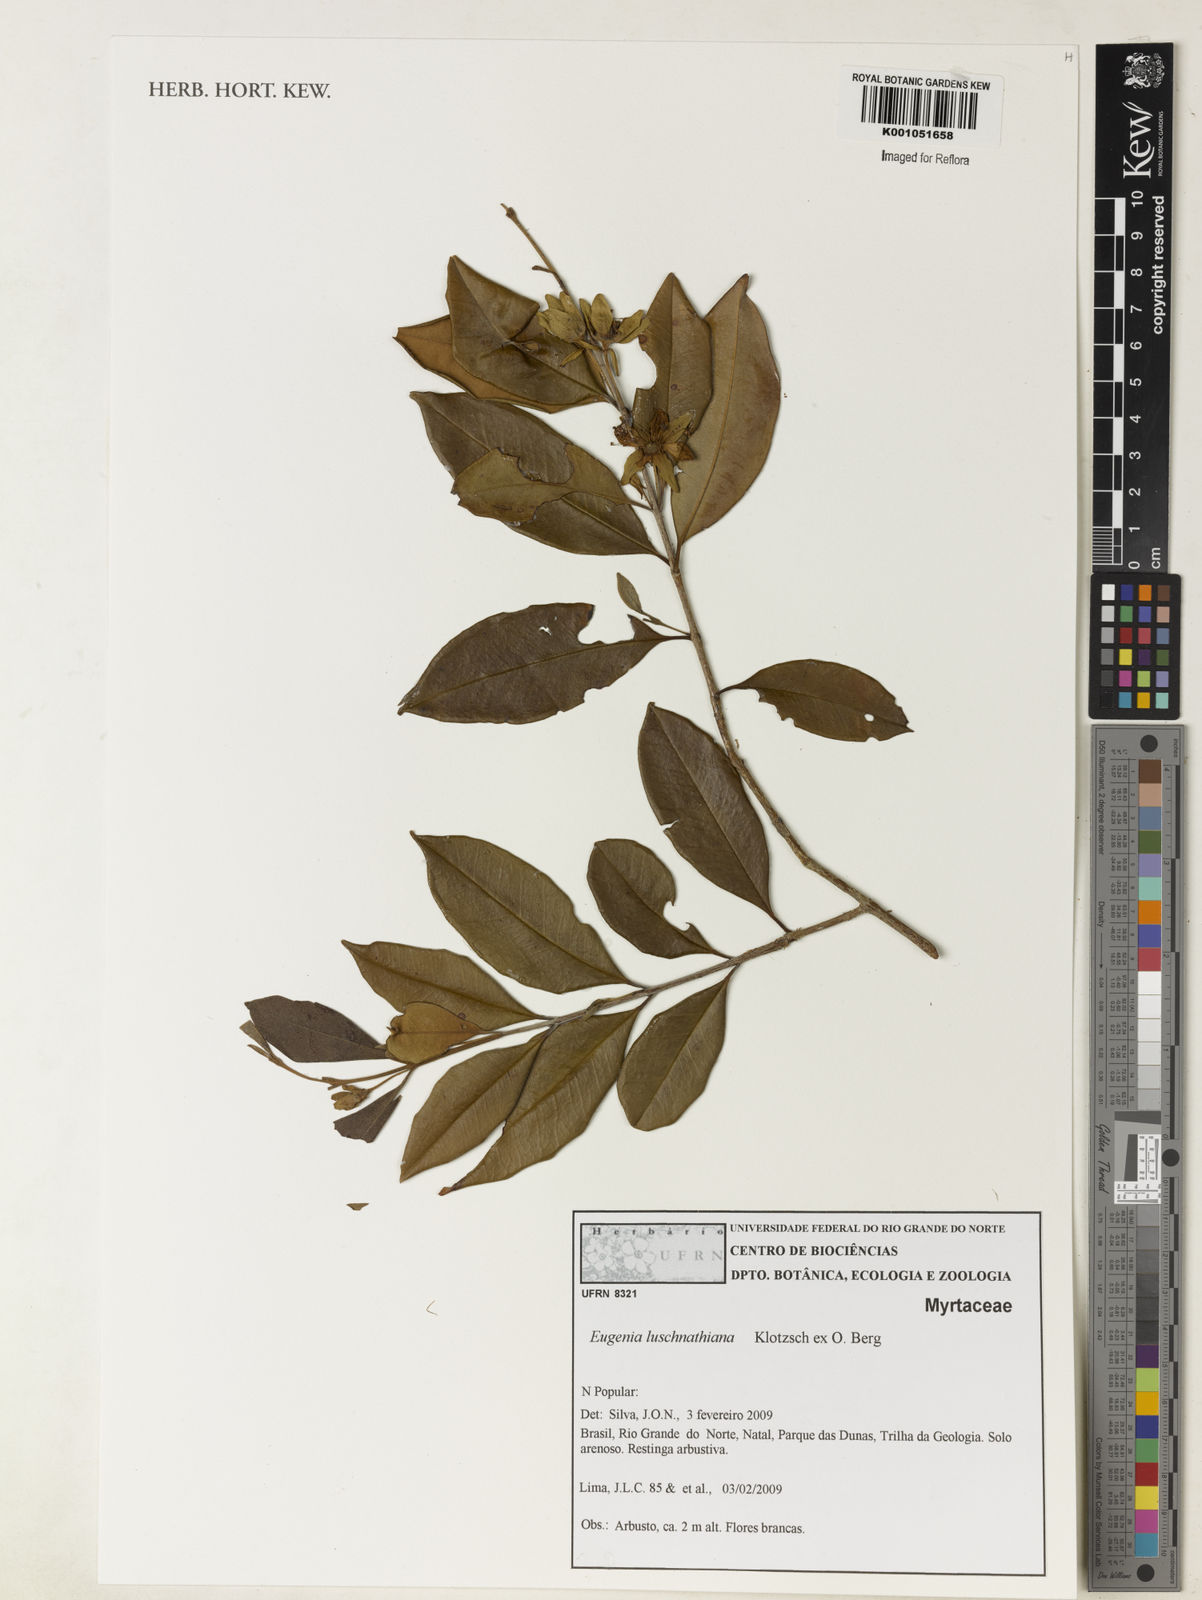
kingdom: Plantae
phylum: Tracheophyta
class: Magnoliopsida
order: Myrtales
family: Myrtaceae
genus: Eugenia
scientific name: Eugenia luschnathiana
